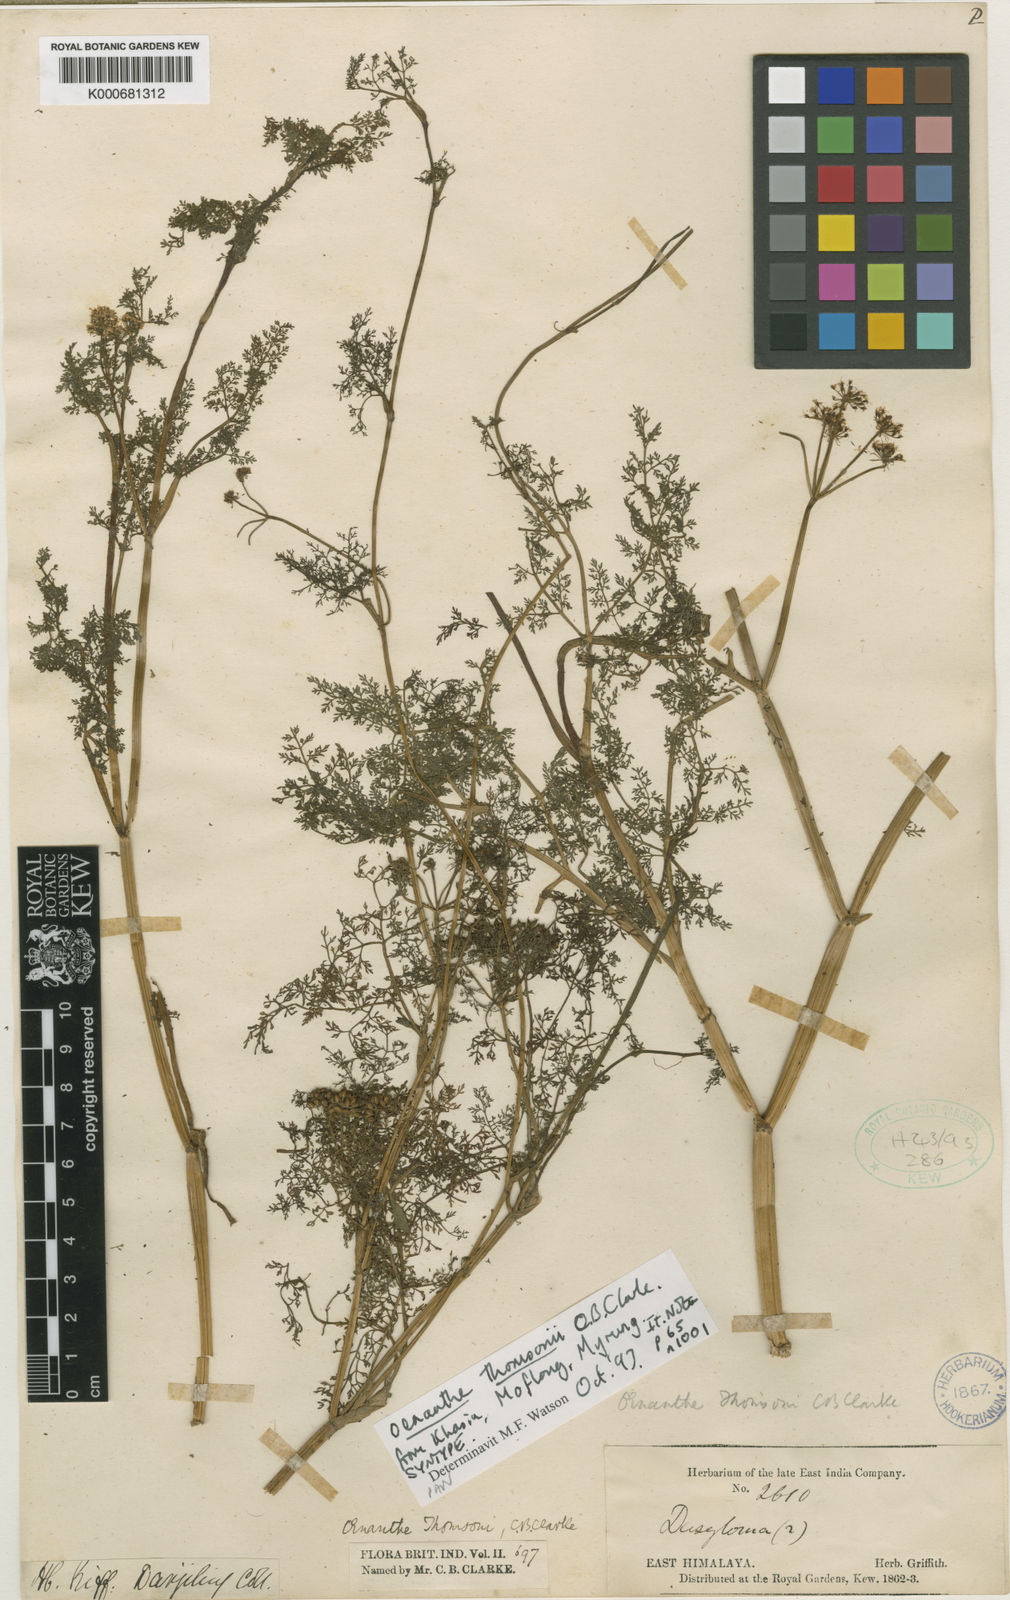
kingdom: Plantae
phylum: Tracheophyta
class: Magnoliopsida
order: Apiales
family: Apiaceae
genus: Oenanthe
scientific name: Oenanthe thomsonii
